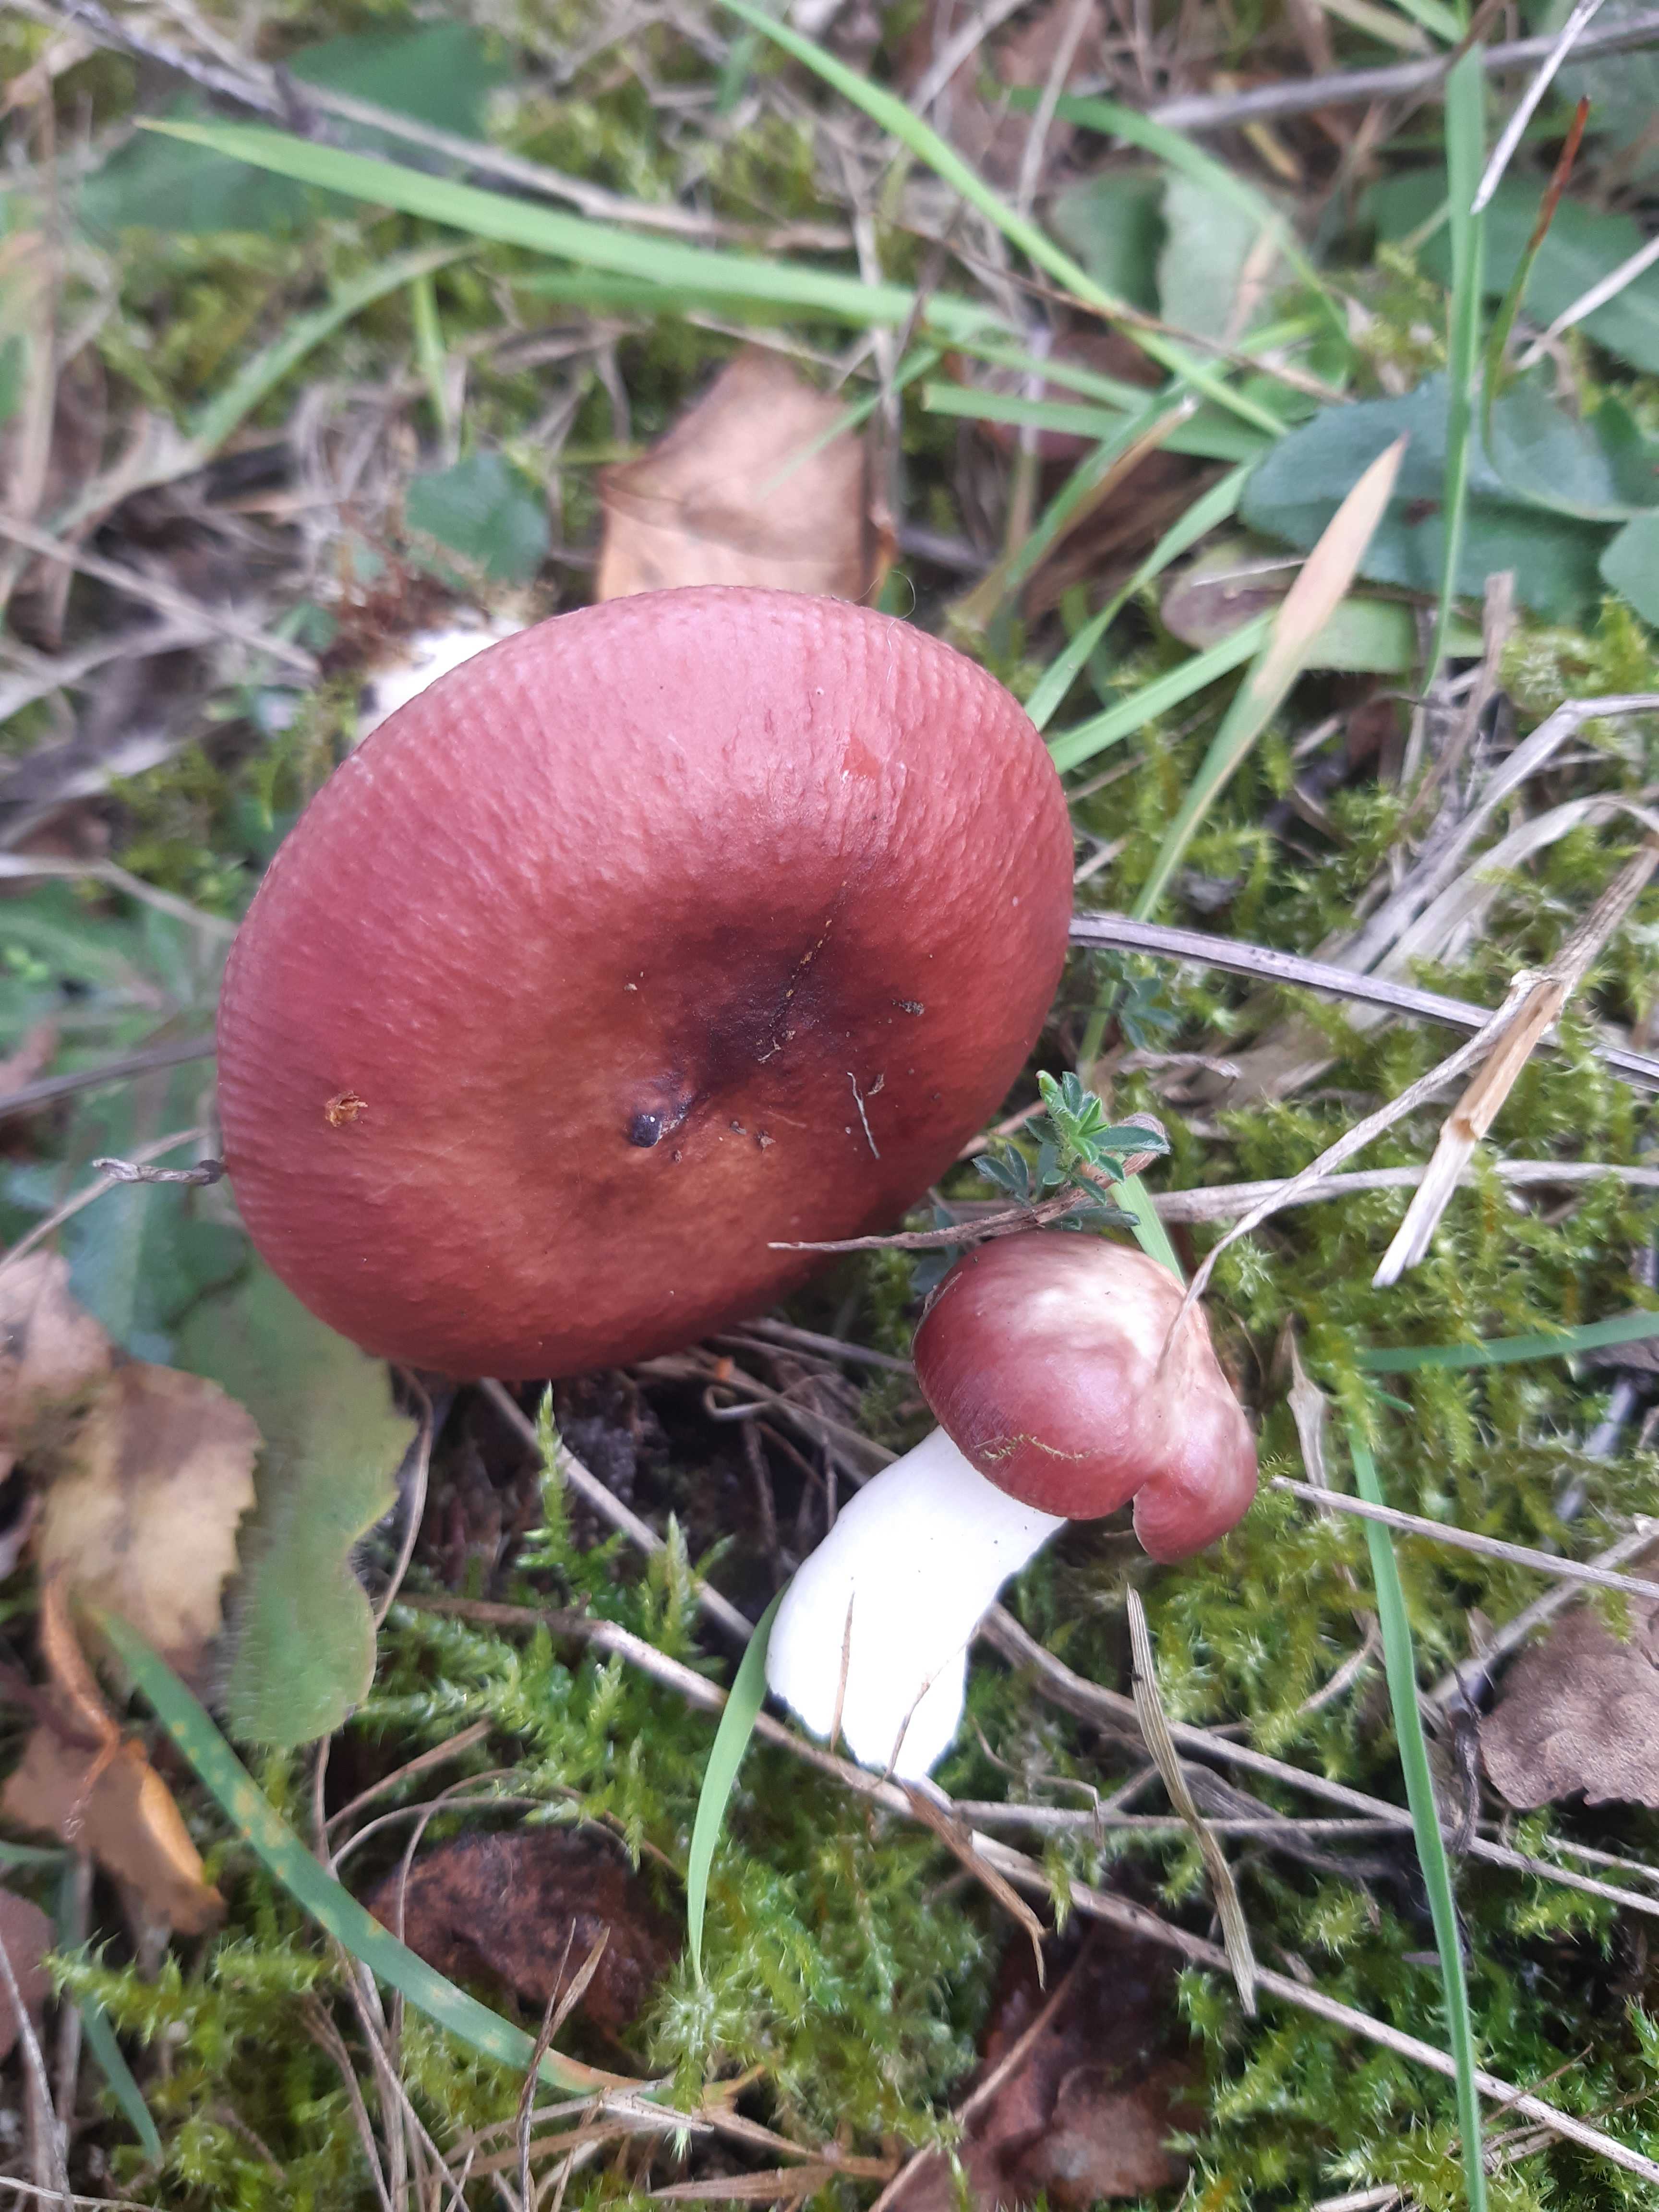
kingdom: Fungi
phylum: Basidiomycota
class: Agaricomycetes
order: Russulales
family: Russulaceae
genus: Russula
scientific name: Russula
